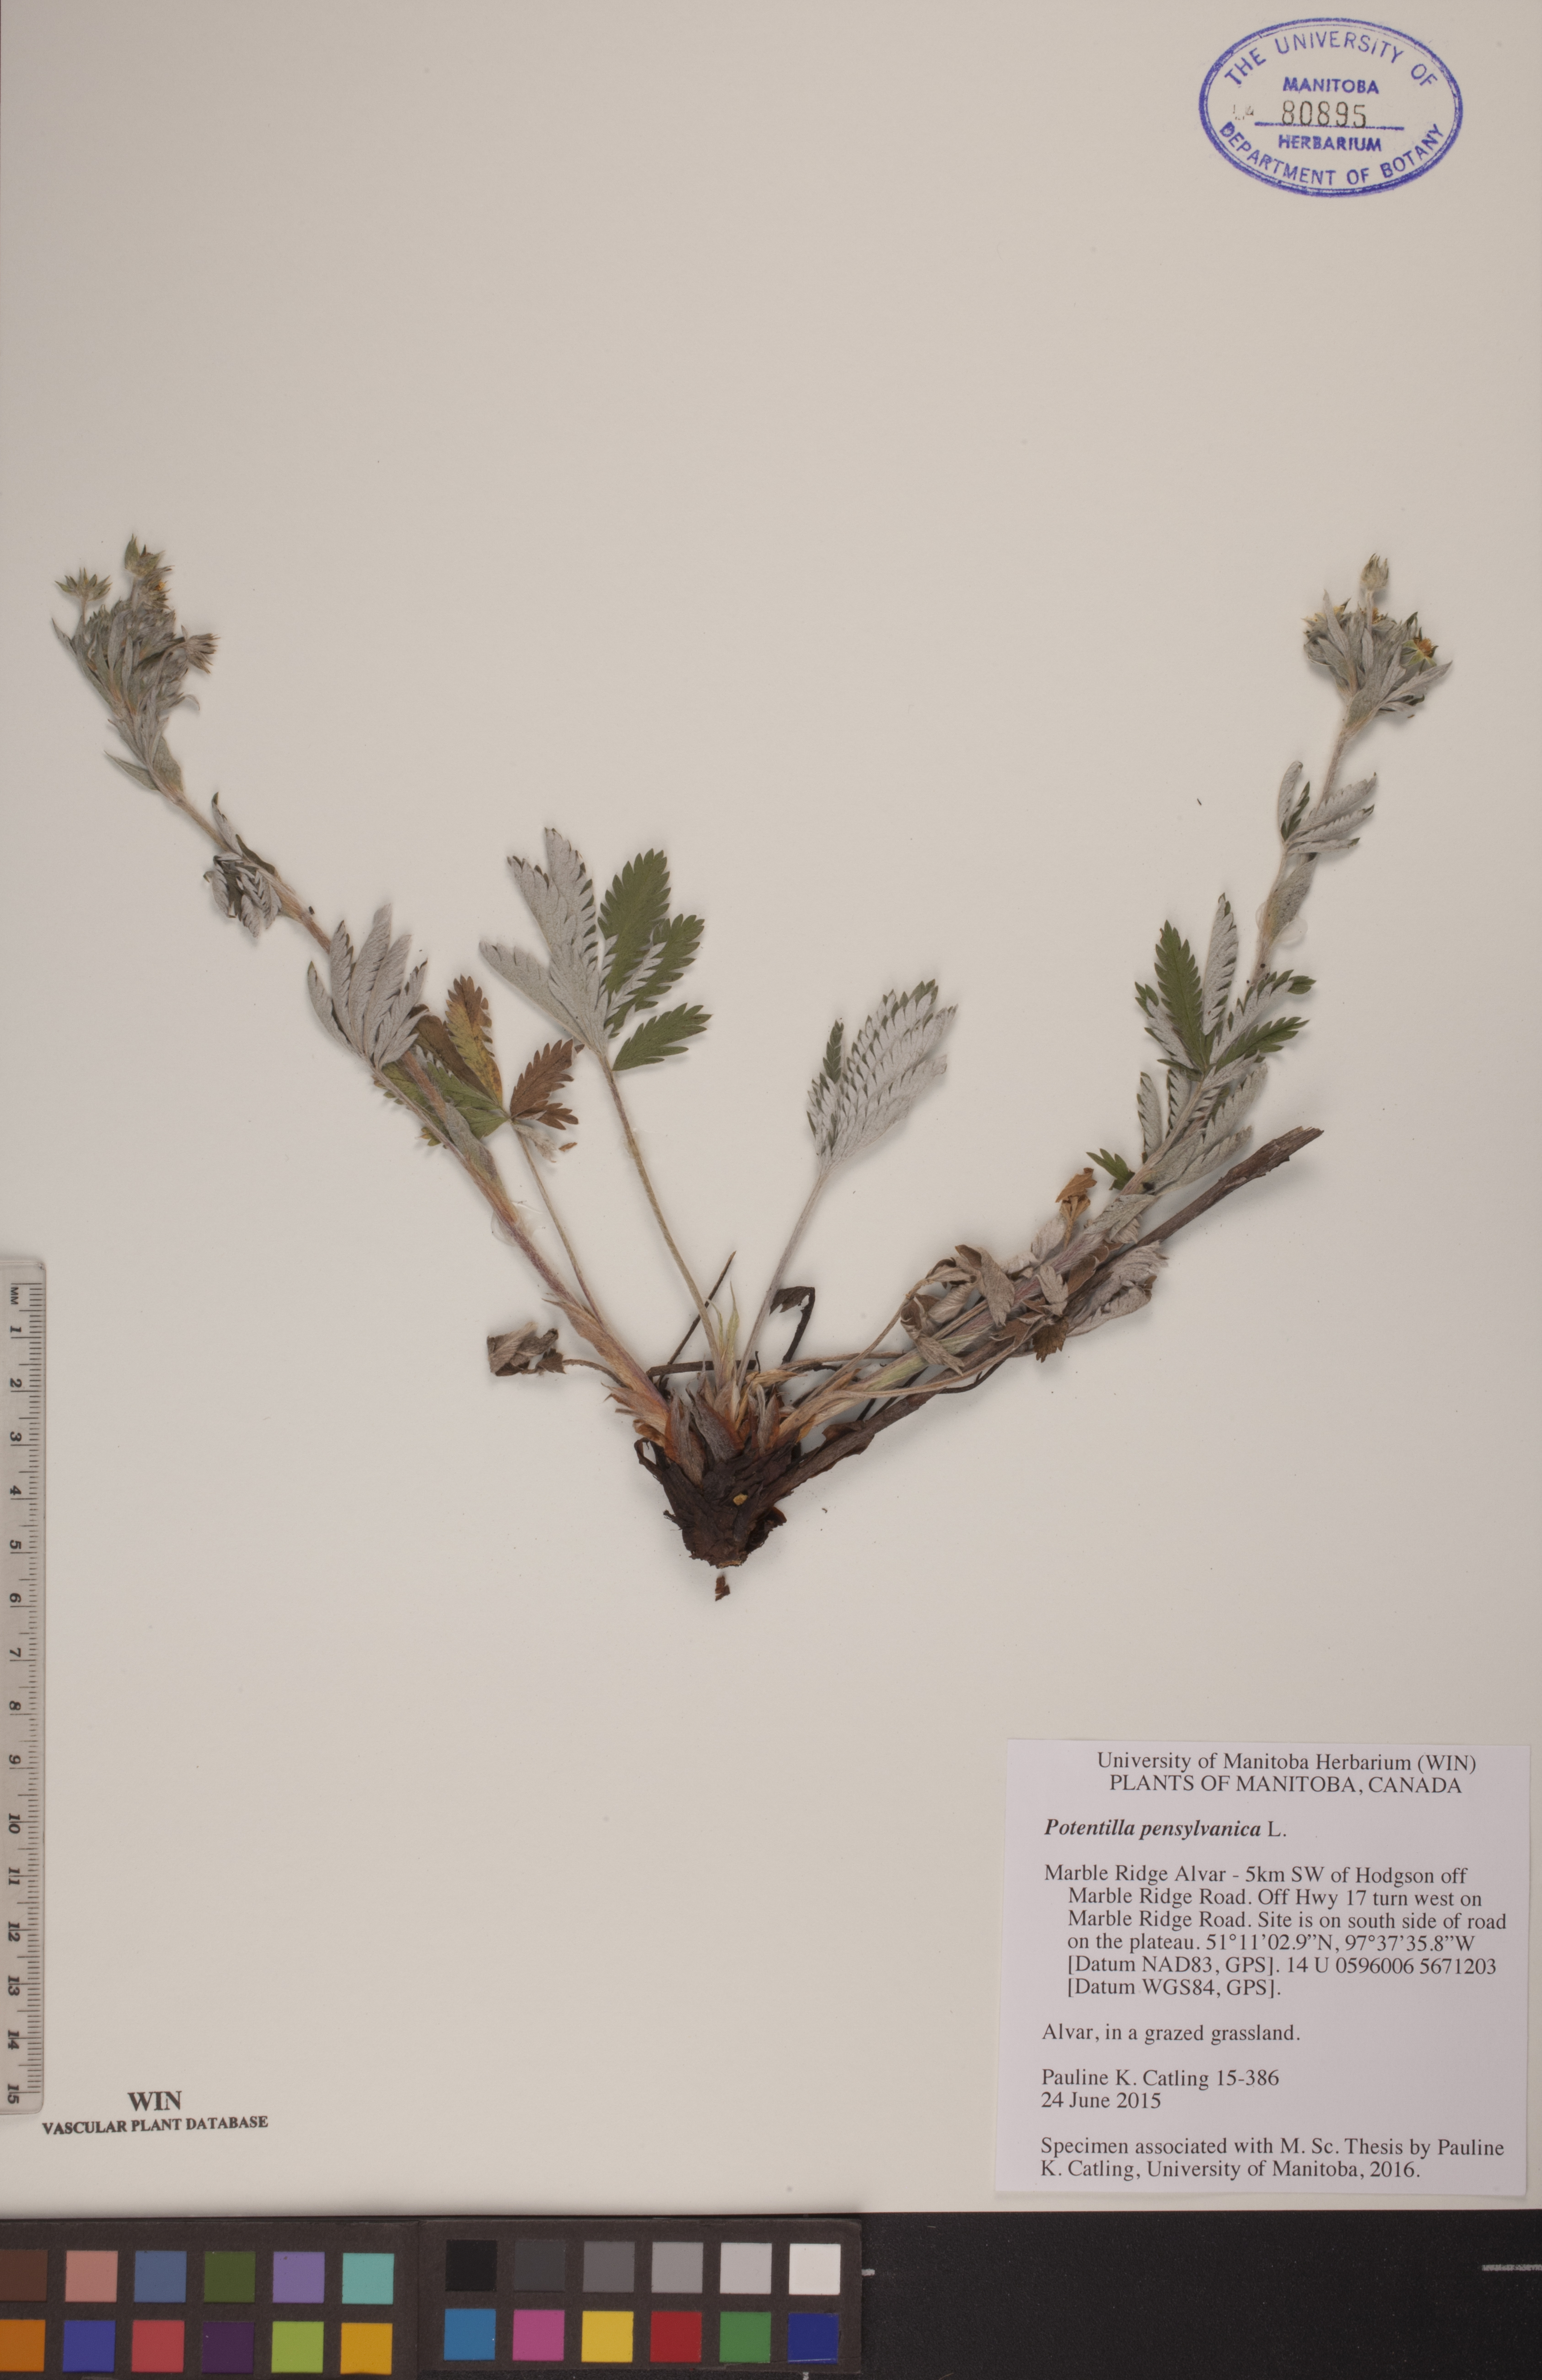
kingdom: Plantae
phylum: Tracheophyta
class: Magnoliopsida
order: Rosales
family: Rosaceae
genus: Potentilla
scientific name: Potentilla pensylvanica
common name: Pennsylvania cinquefoil
